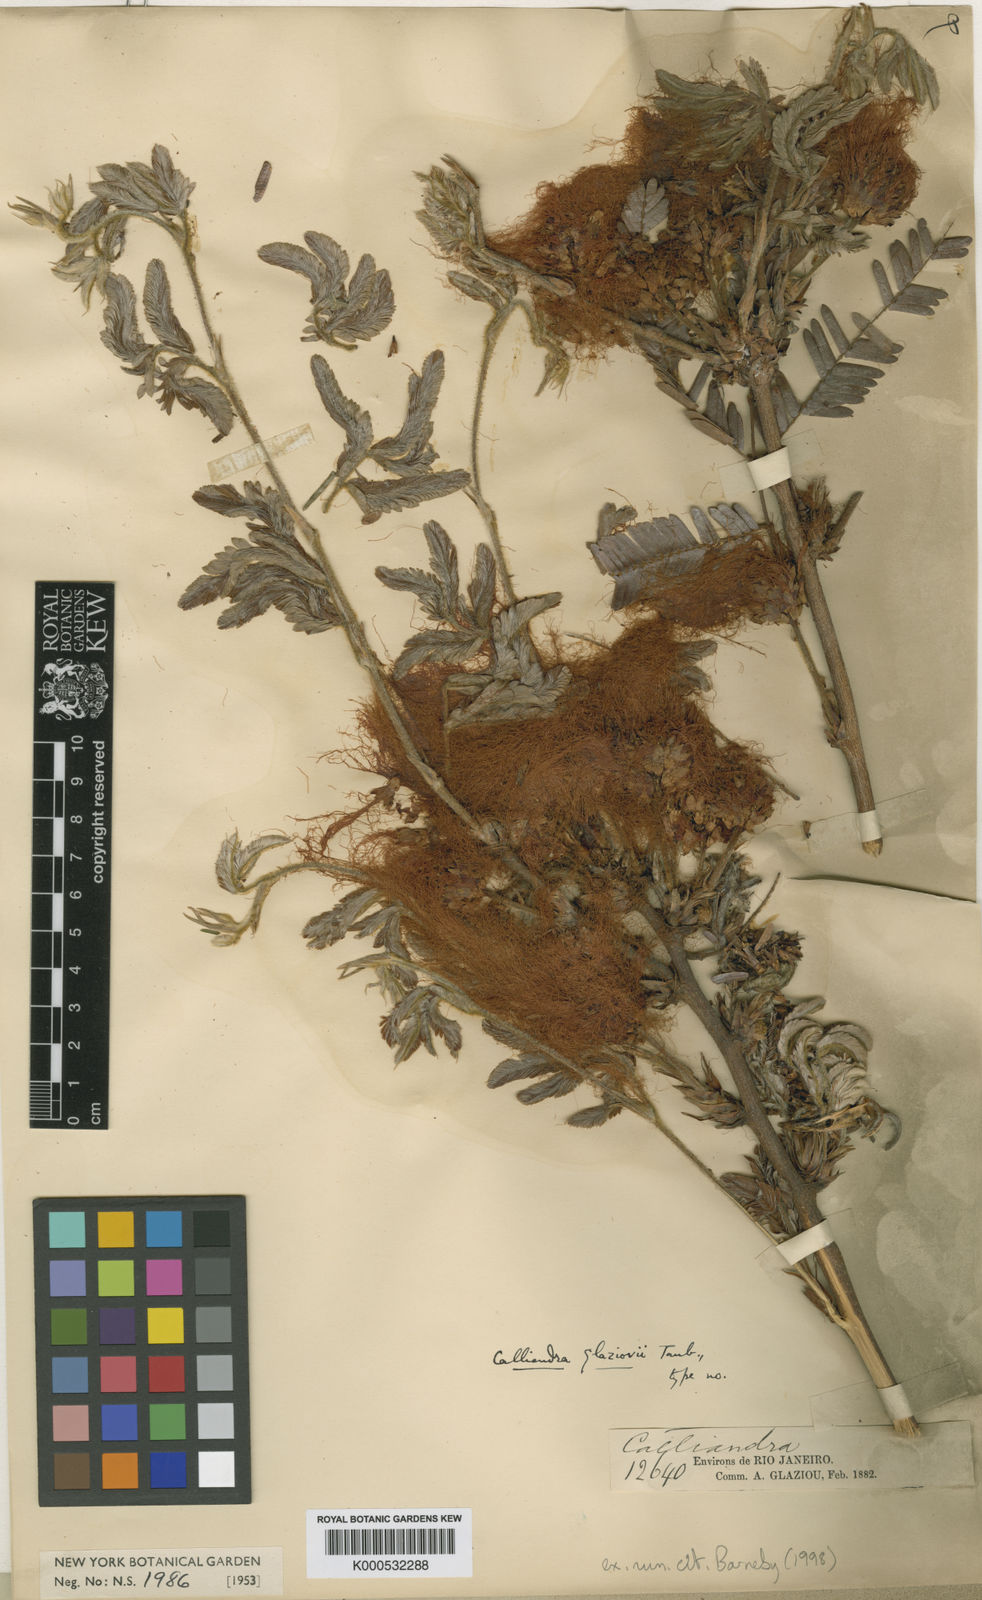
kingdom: Plantae
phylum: Tracheophyta
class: Magnoliopsida
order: Fabales
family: Fabaceae
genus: Calliandra
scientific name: Calliandra glaziovii
